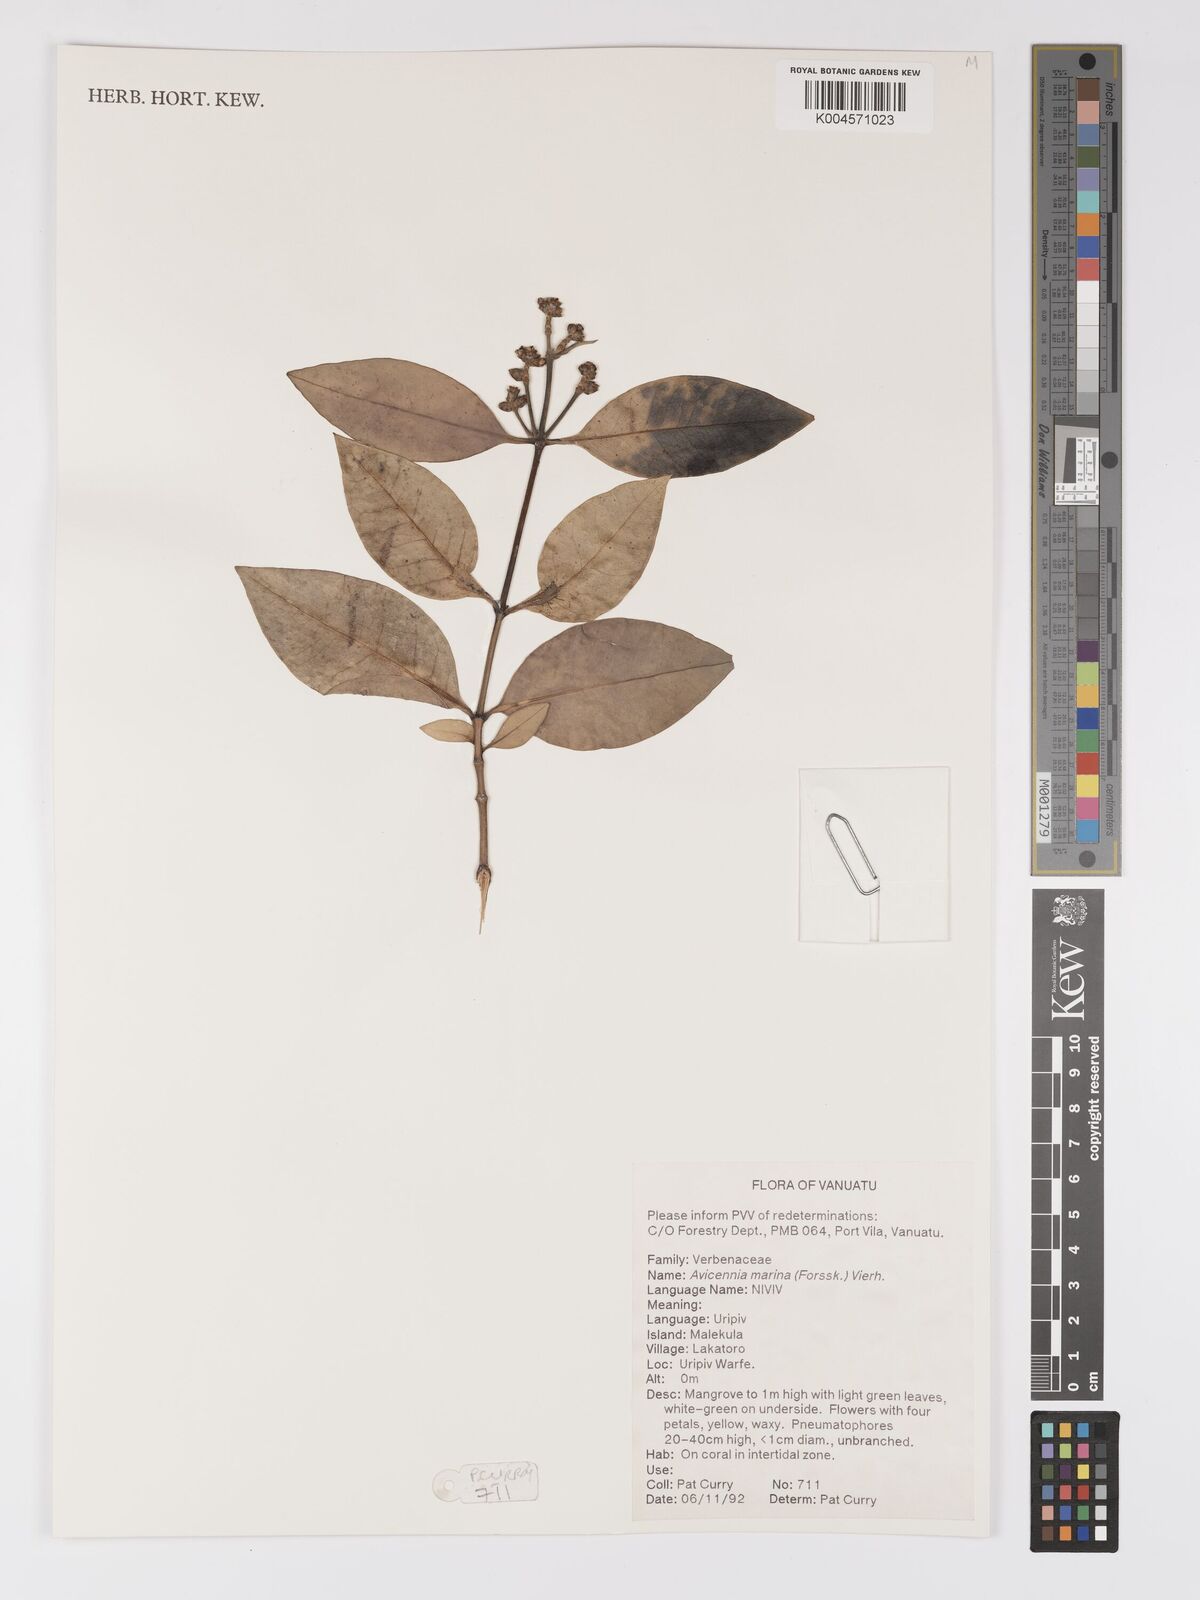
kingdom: Plantae
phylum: Tracheophyta
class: Magnoliopsida
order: Lamiales
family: Acanthaceae
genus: Avicennia
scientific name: Avicennia marina
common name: Gray mangrove
